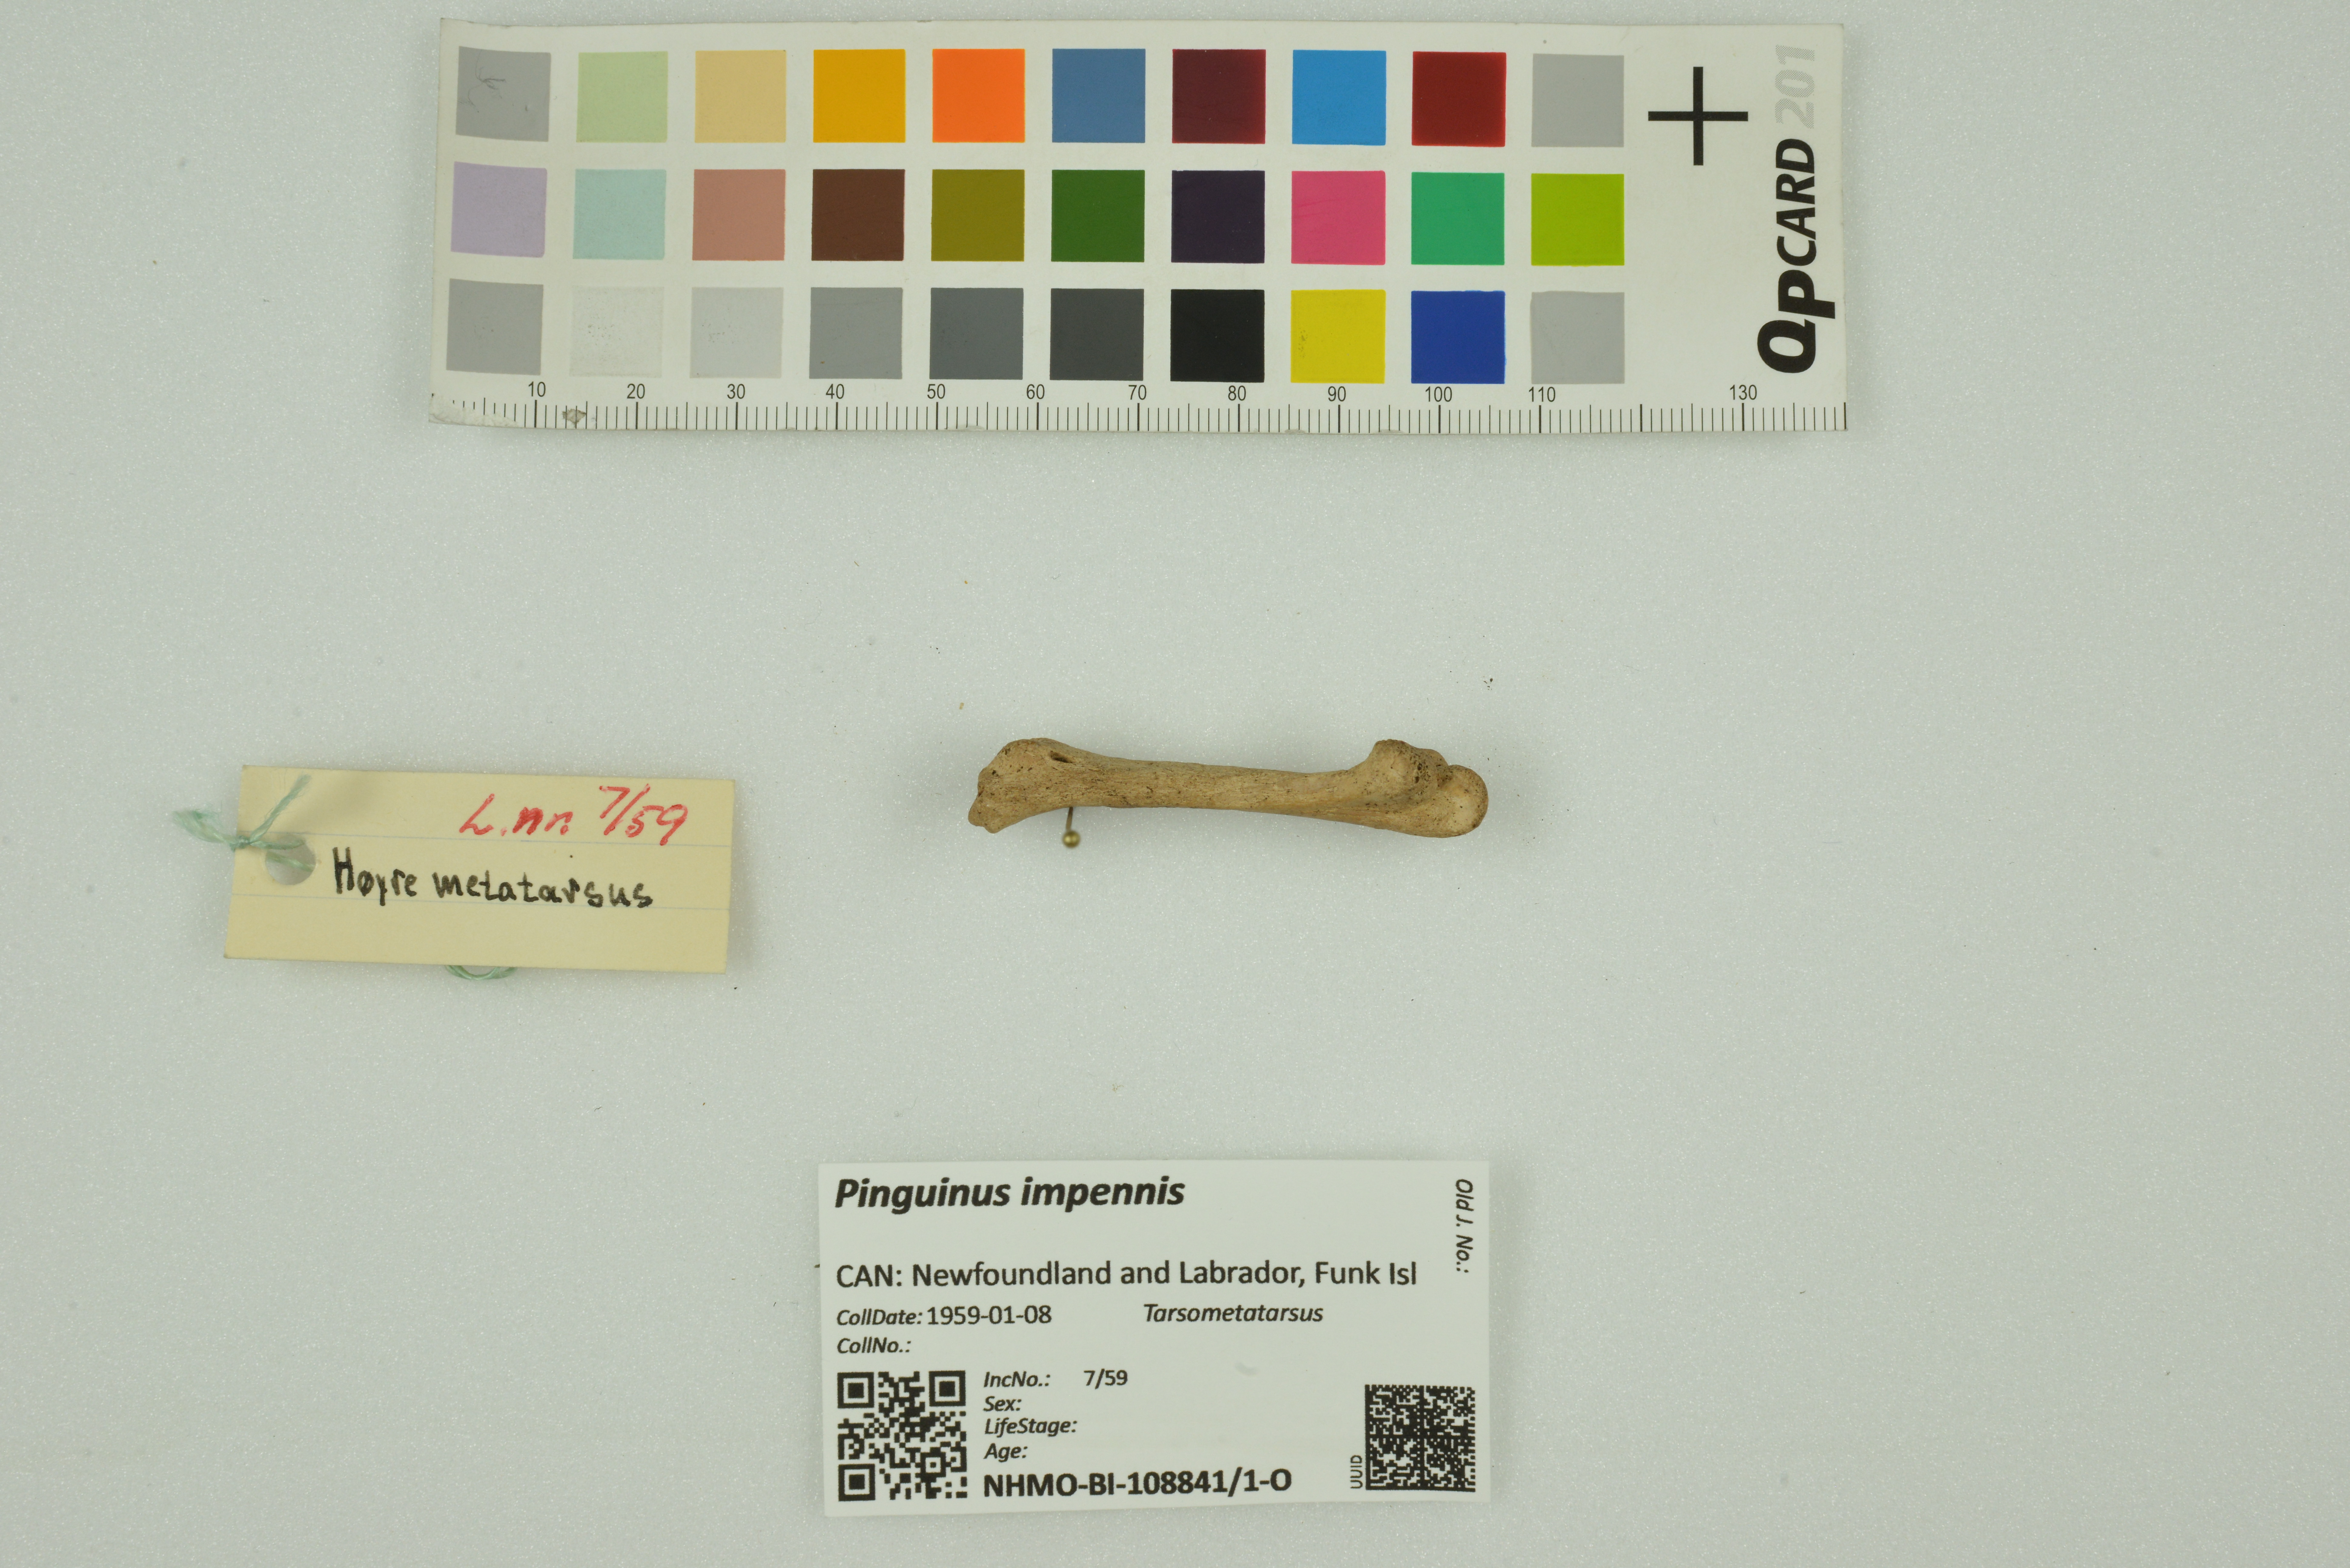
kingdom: Animalia
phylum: Chordata
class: Aves
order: Charadriiformes
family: Alcidae
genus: Pinguinus
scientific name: Pinguinus impennis
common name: Great auk
